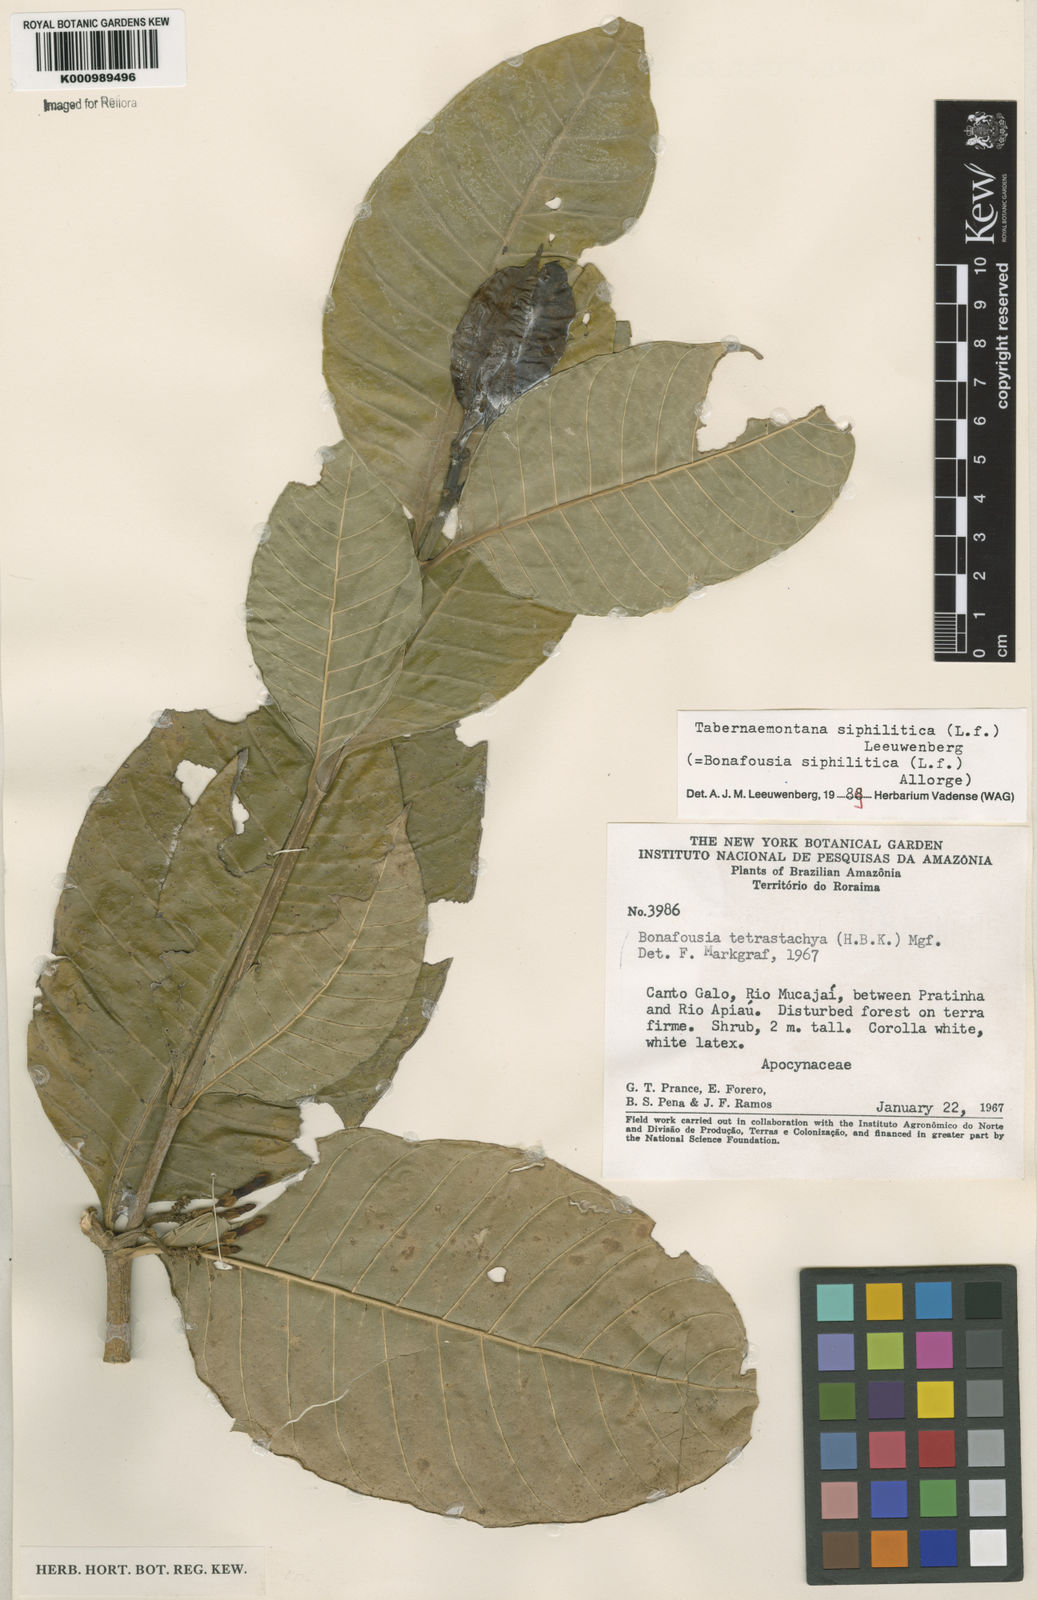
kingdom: Plantae
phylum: Tracheophyta
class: Magnoliopsida
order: Gentianales
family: Apocynaceae
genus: Tabernaemontana
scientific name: Tabernaemontana siphilitica
